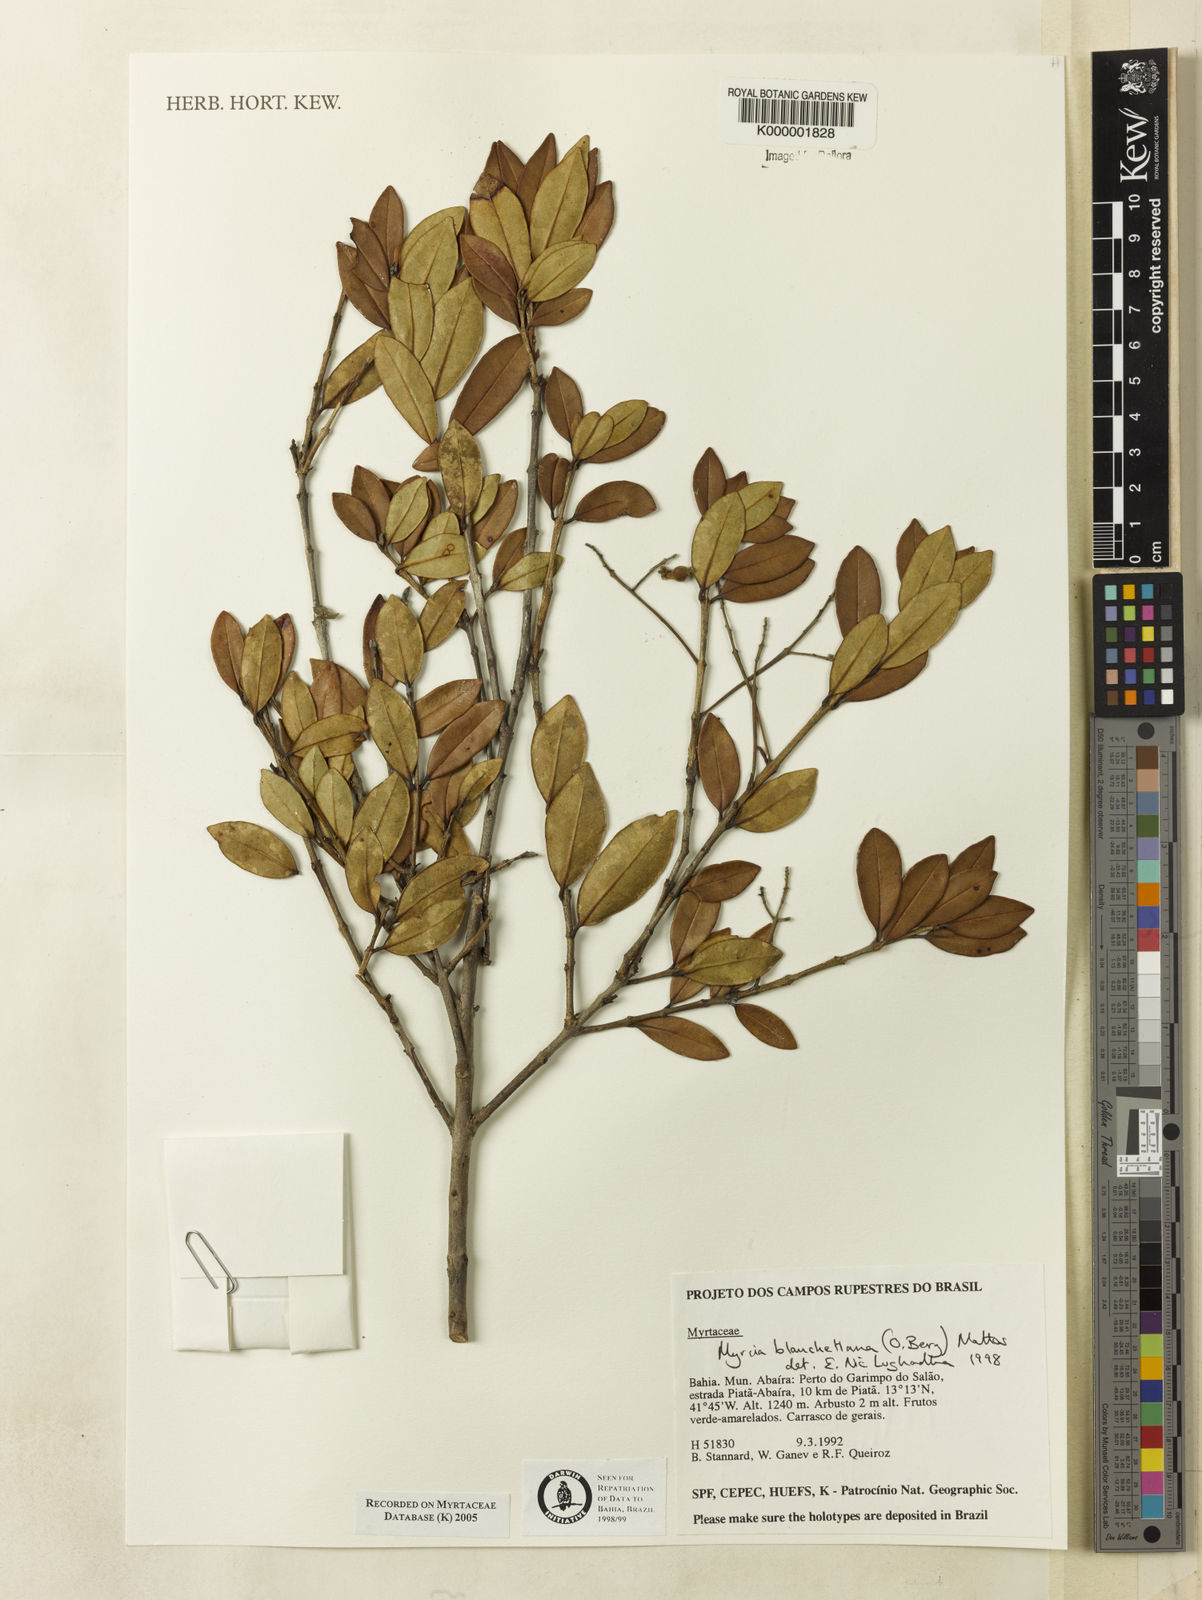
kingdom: Plantae
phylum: Tracheophyta
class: Magnoliopsida
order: Myrtales
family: Myrtaceae
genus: Myrcia
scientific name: Myrcia blanchetiana
